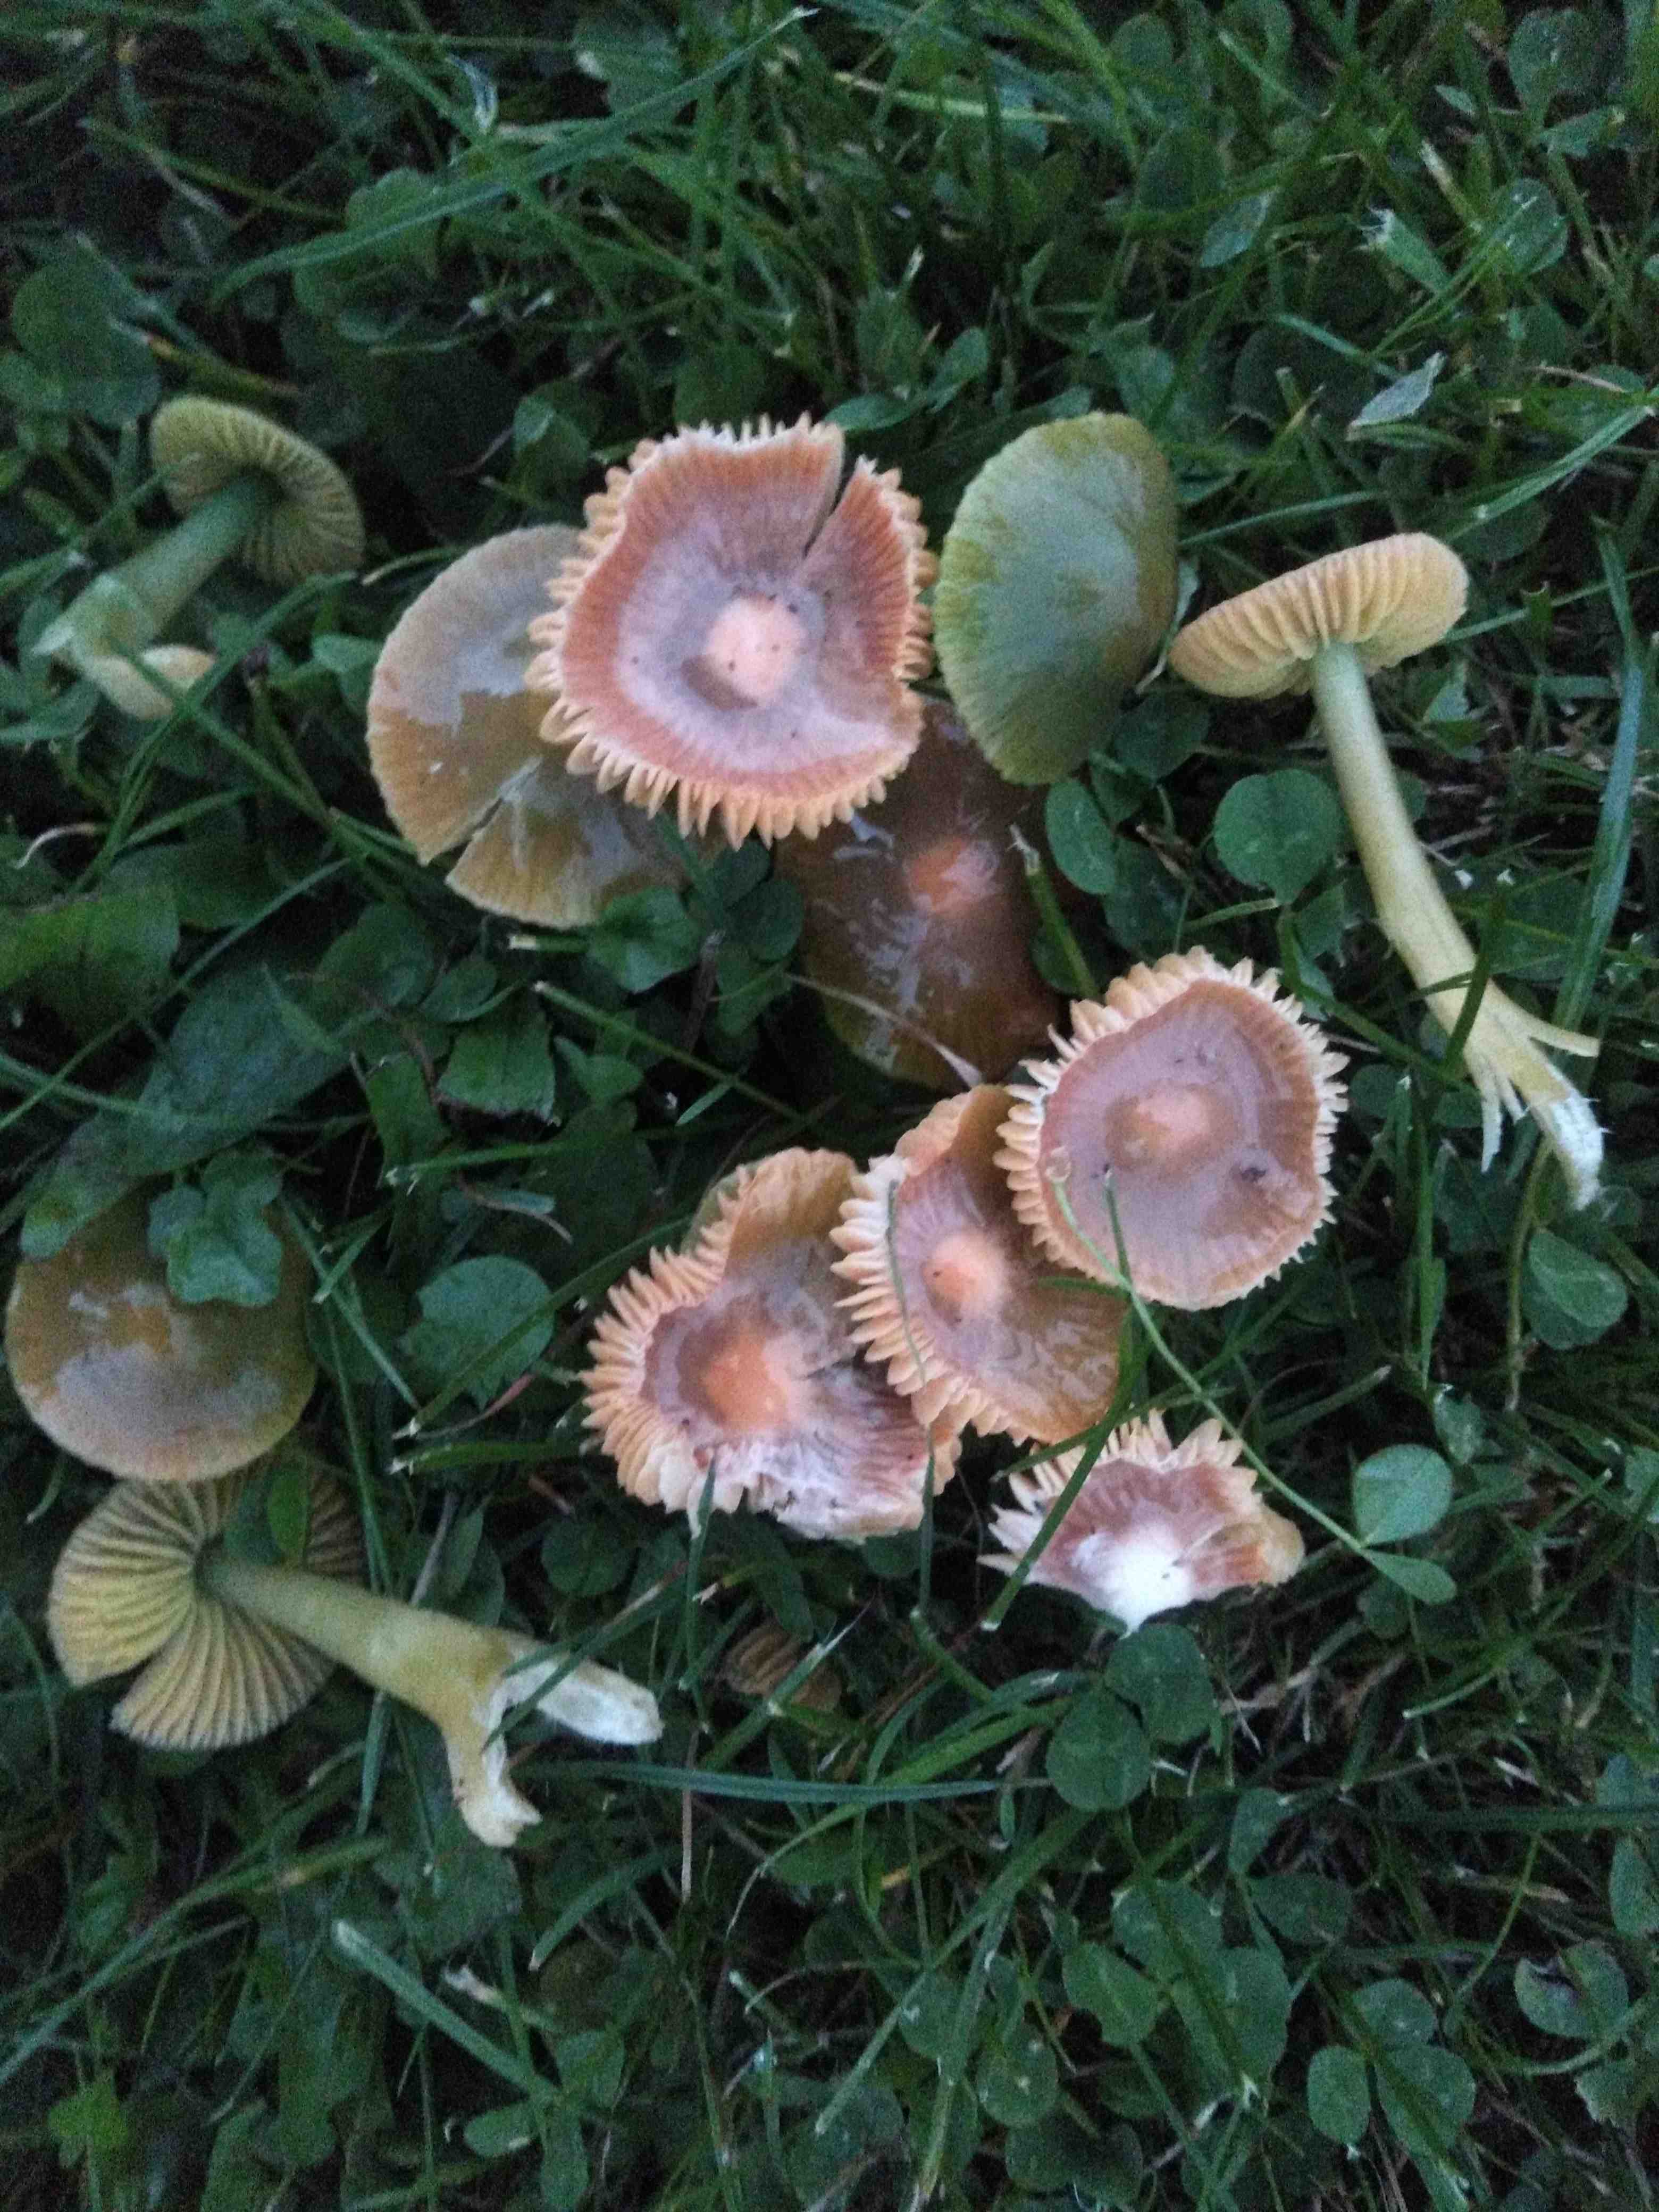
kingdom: Fungi
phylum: Basidiomycota
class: Agaricomycetes
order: Agaricales
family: Hygrophoraceae
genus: Gliophorus
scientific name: Gliophorus psittacinus
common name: papegøje-vokshat
